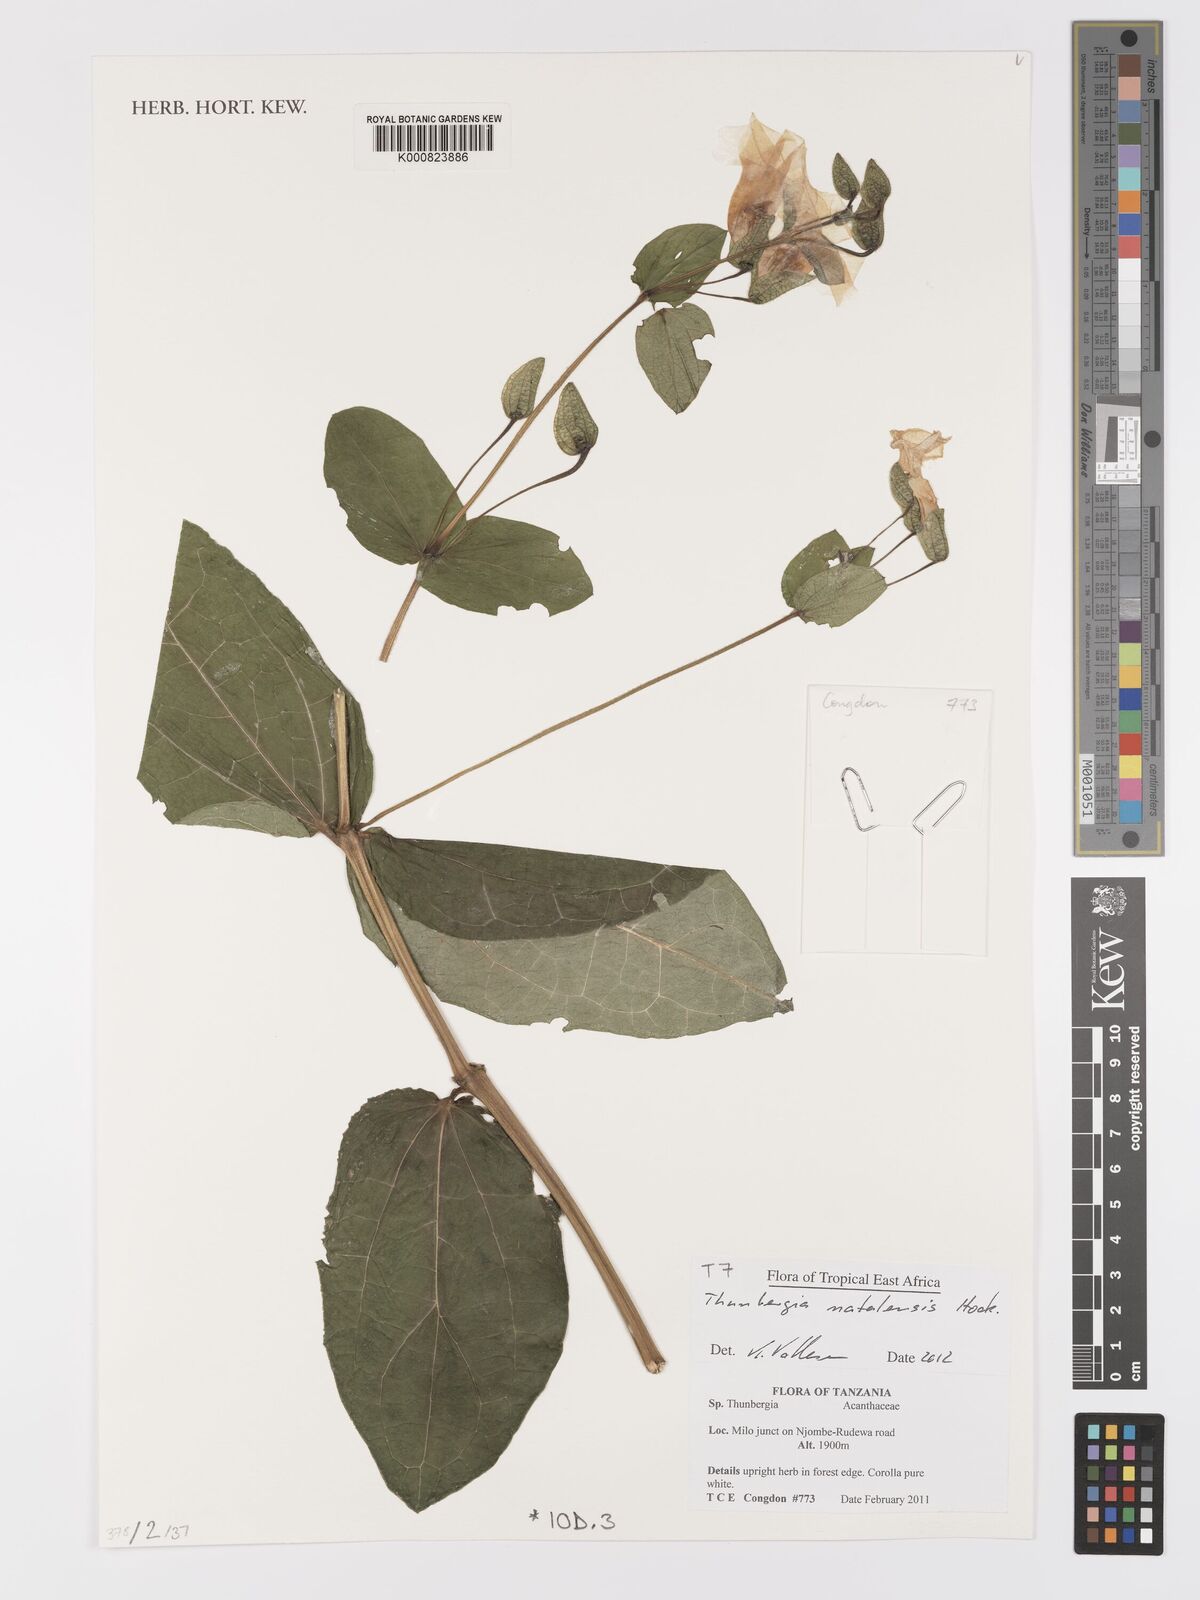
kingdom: Plantae
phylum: Tracheophyta
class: Magnoliopsida
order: Lamiales
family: Acanthaceae
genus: Thunbergia
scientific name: Thunbergia natalensis
